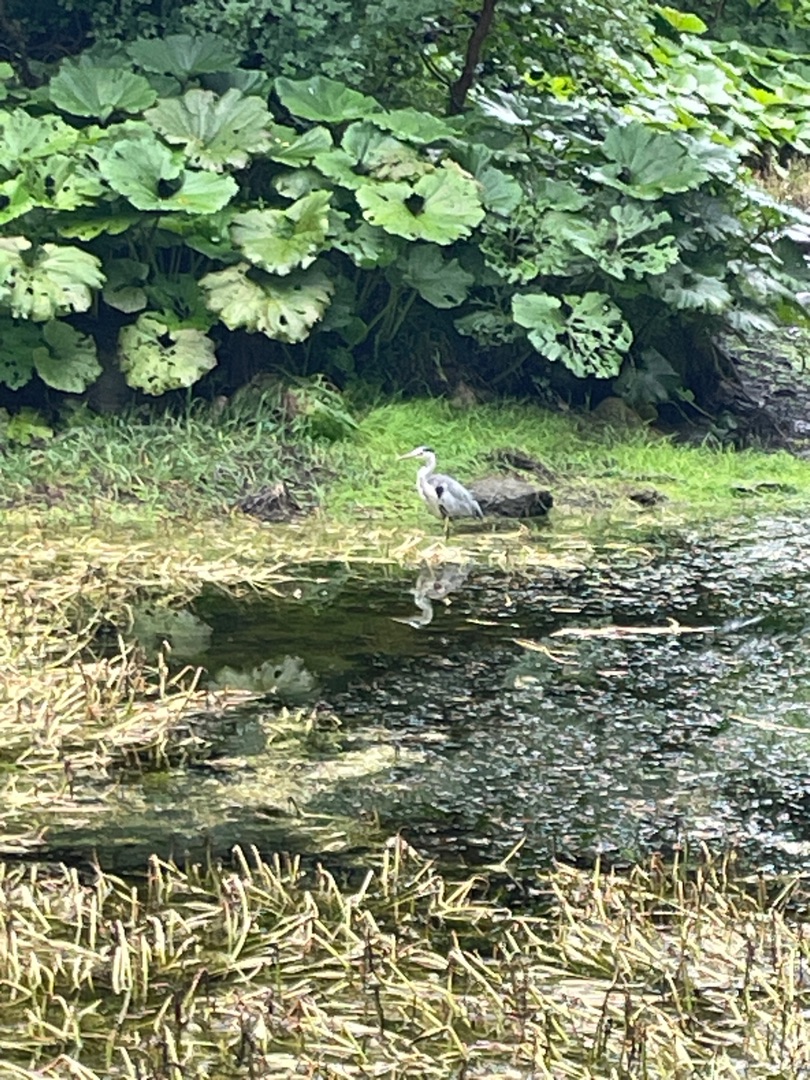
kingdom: Animalia
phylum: Chordata
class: Aves
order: Pelecaniformes
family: Ardeidae
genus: Ardea
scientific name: Ardea cinerea
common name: Fiskehejre
